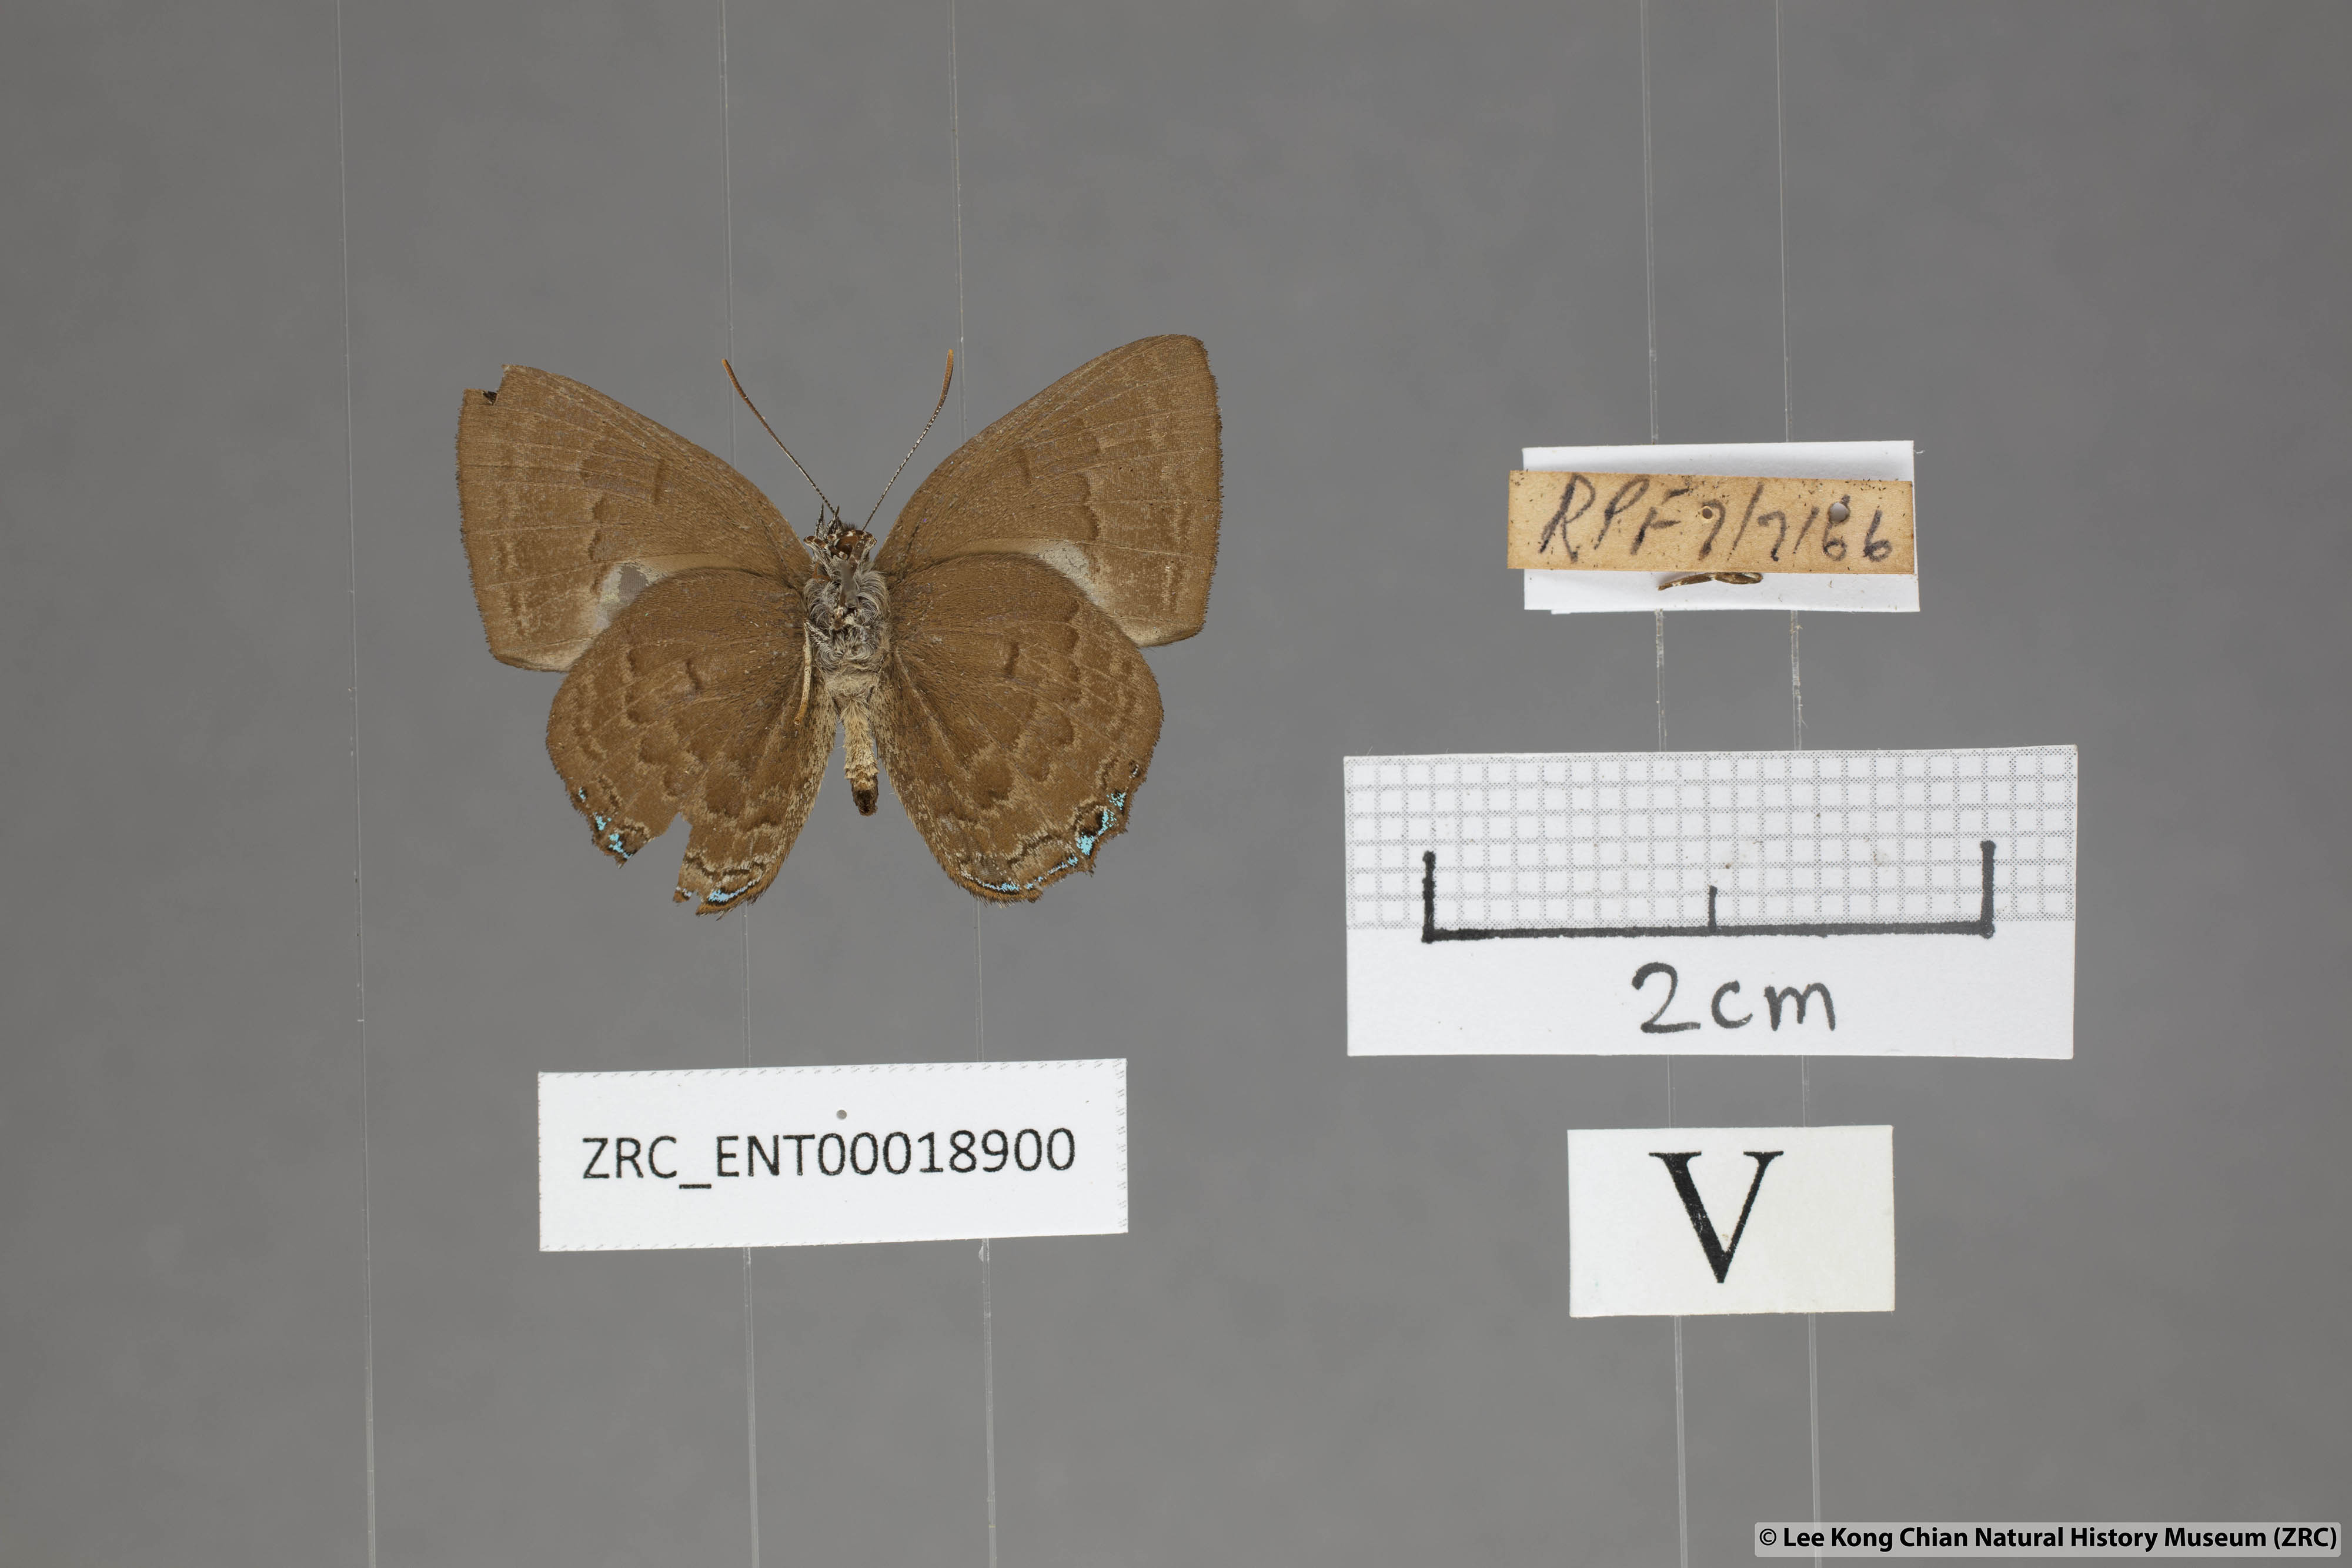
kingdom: Animalia
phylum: Arthropoda
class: Insecta
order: Lepidoptera
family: Lycaenidae
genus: Simiskina
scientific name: Simiskina
